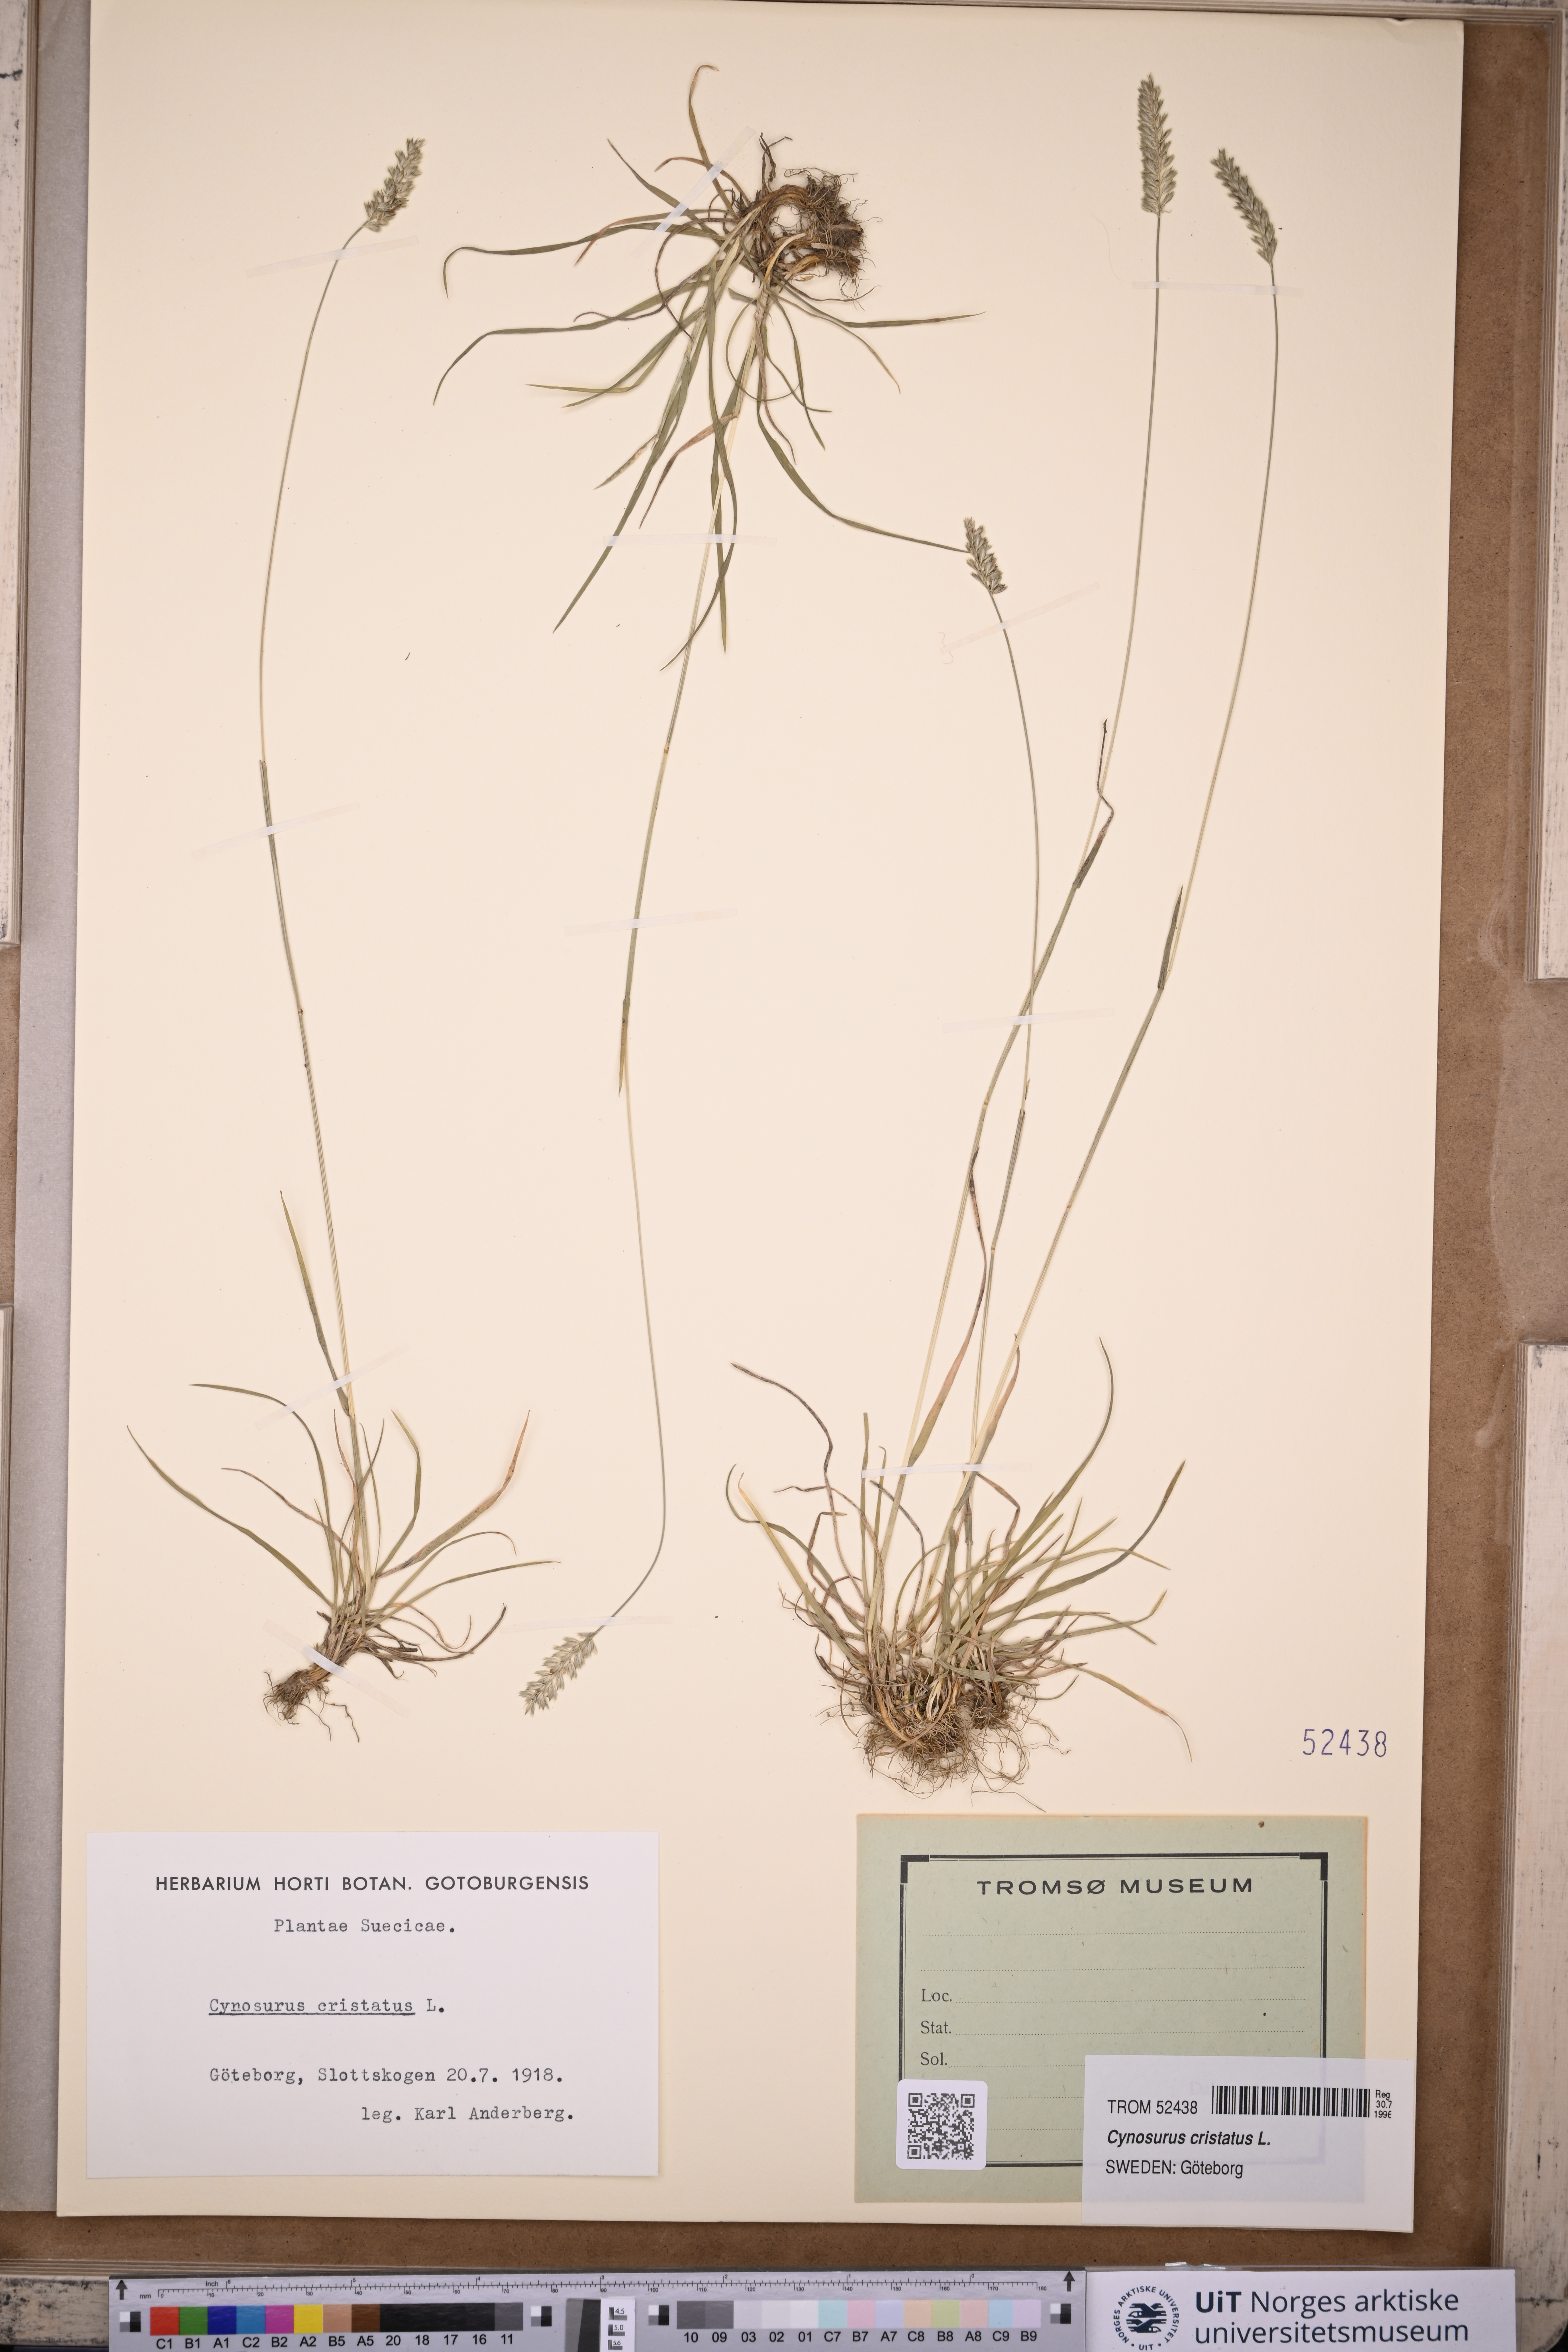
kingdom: Plantae
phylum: Tracheophyta
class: Liliopsida
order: Poales
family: Poaceae
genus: Cynosurus
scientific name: Cynosurus cristatus
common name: Crested dog's-tail
